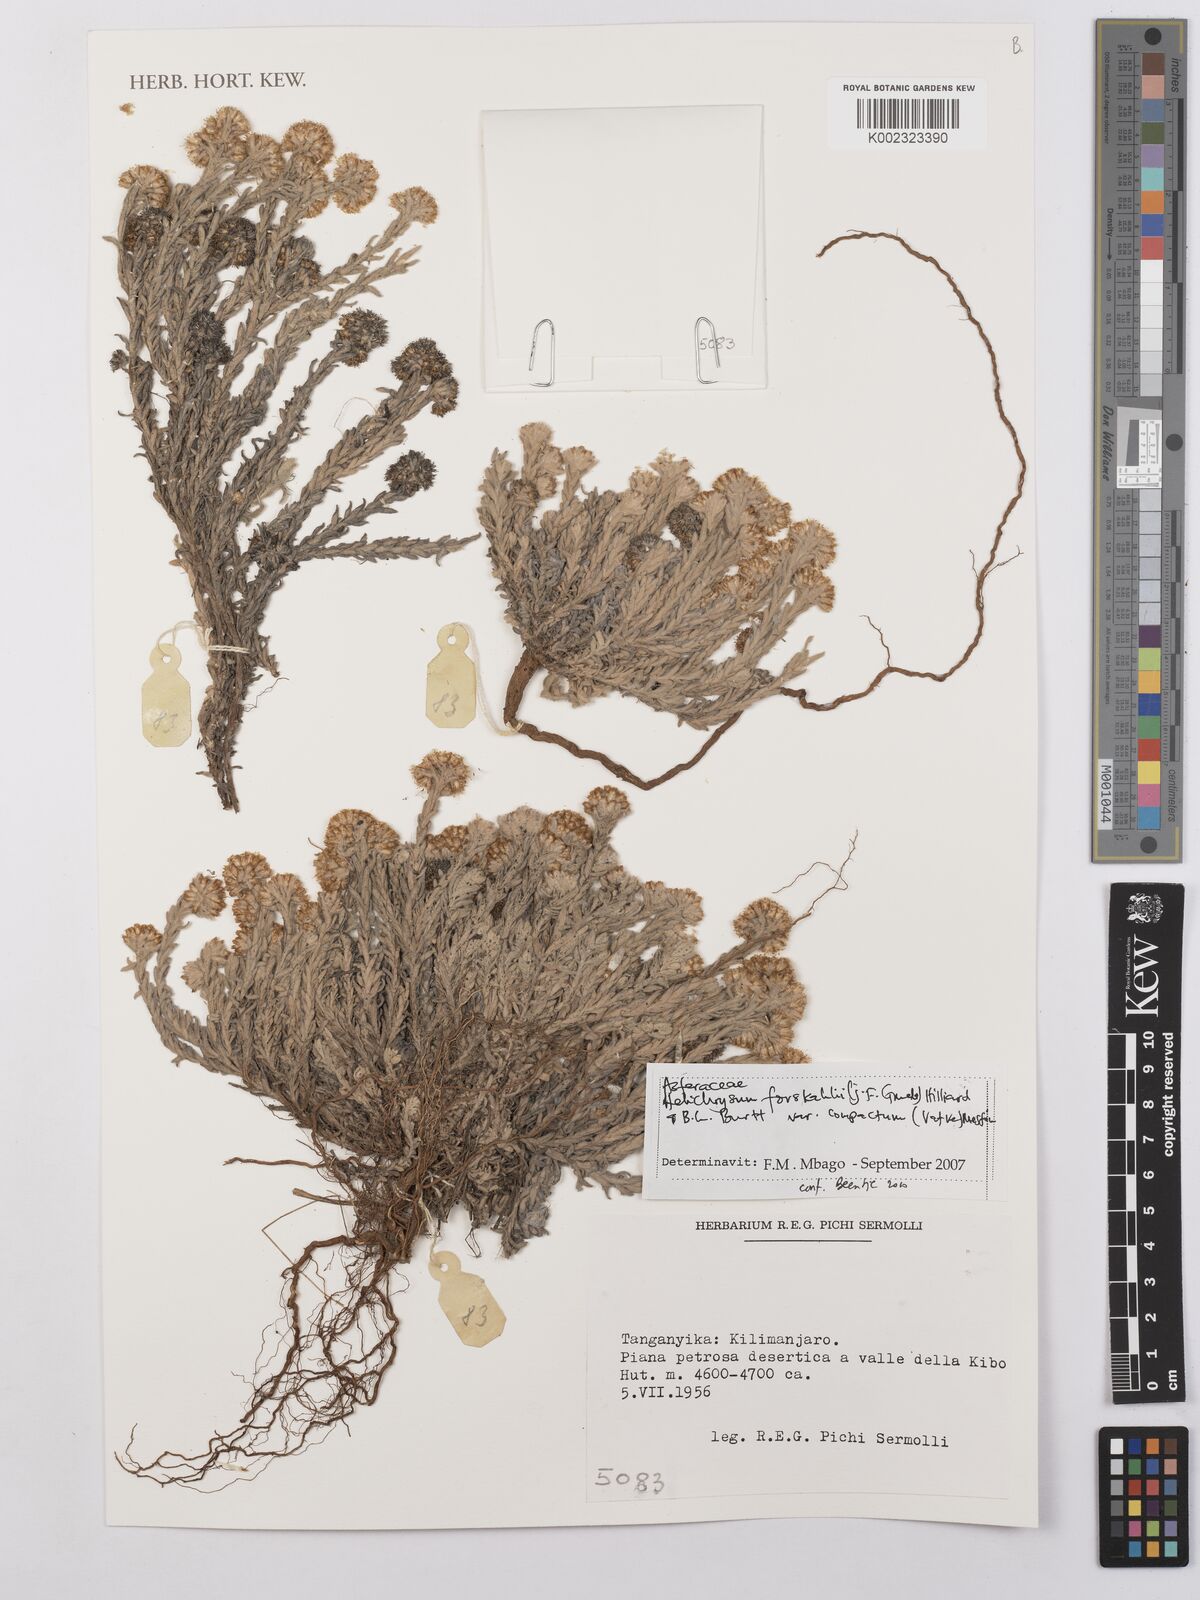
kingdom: Plantae
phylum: Tracheophyta
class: Magnoliopsida
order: Asterales
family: Asteraceae
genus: Helichrysum
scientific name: Helichrysum forskahlii
